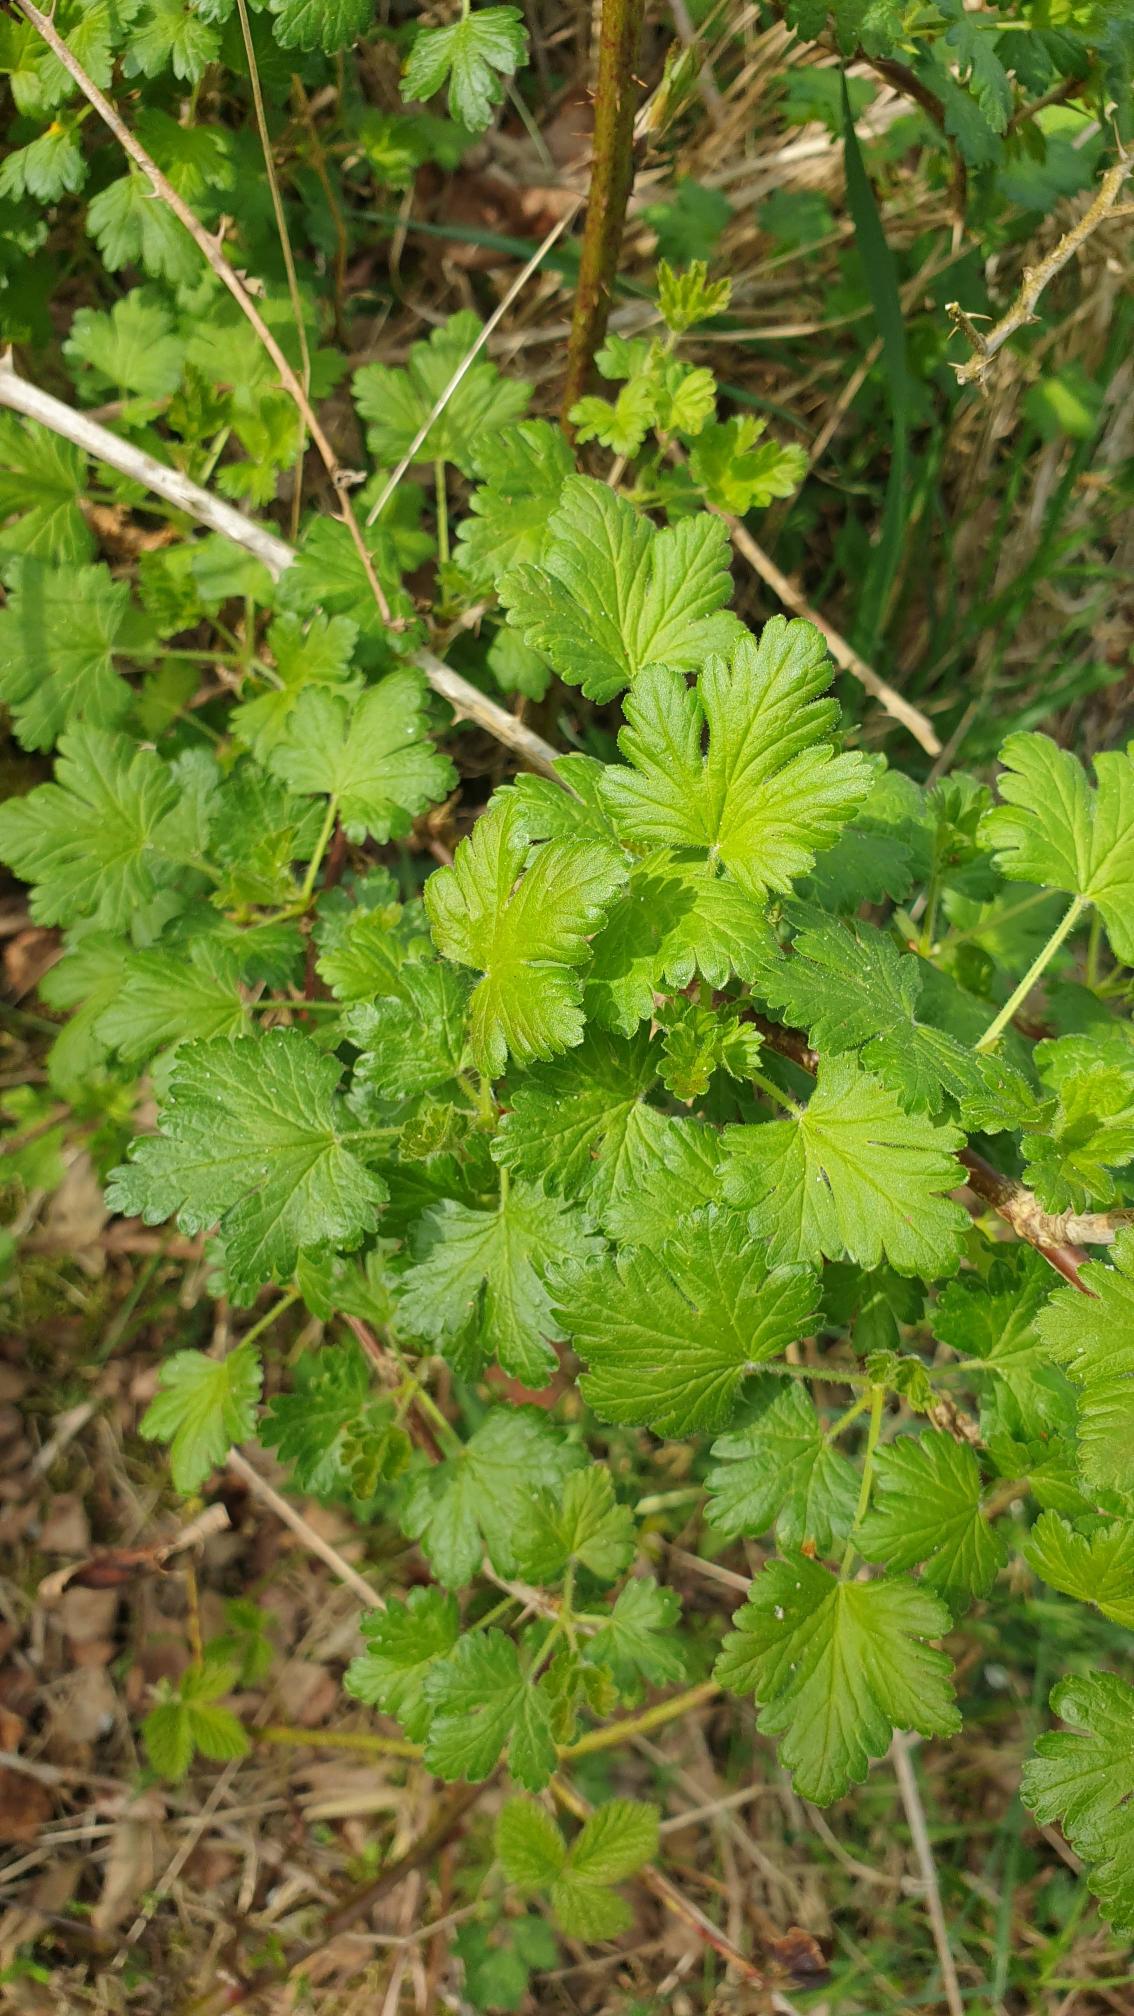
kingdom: Plantae
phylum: Tracheophyta
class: Magnoliopsida
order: Saxifragales
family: Grossulariaceae
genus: Ribes
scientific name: Ribes uva-crispa
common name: Stikkelsbær
